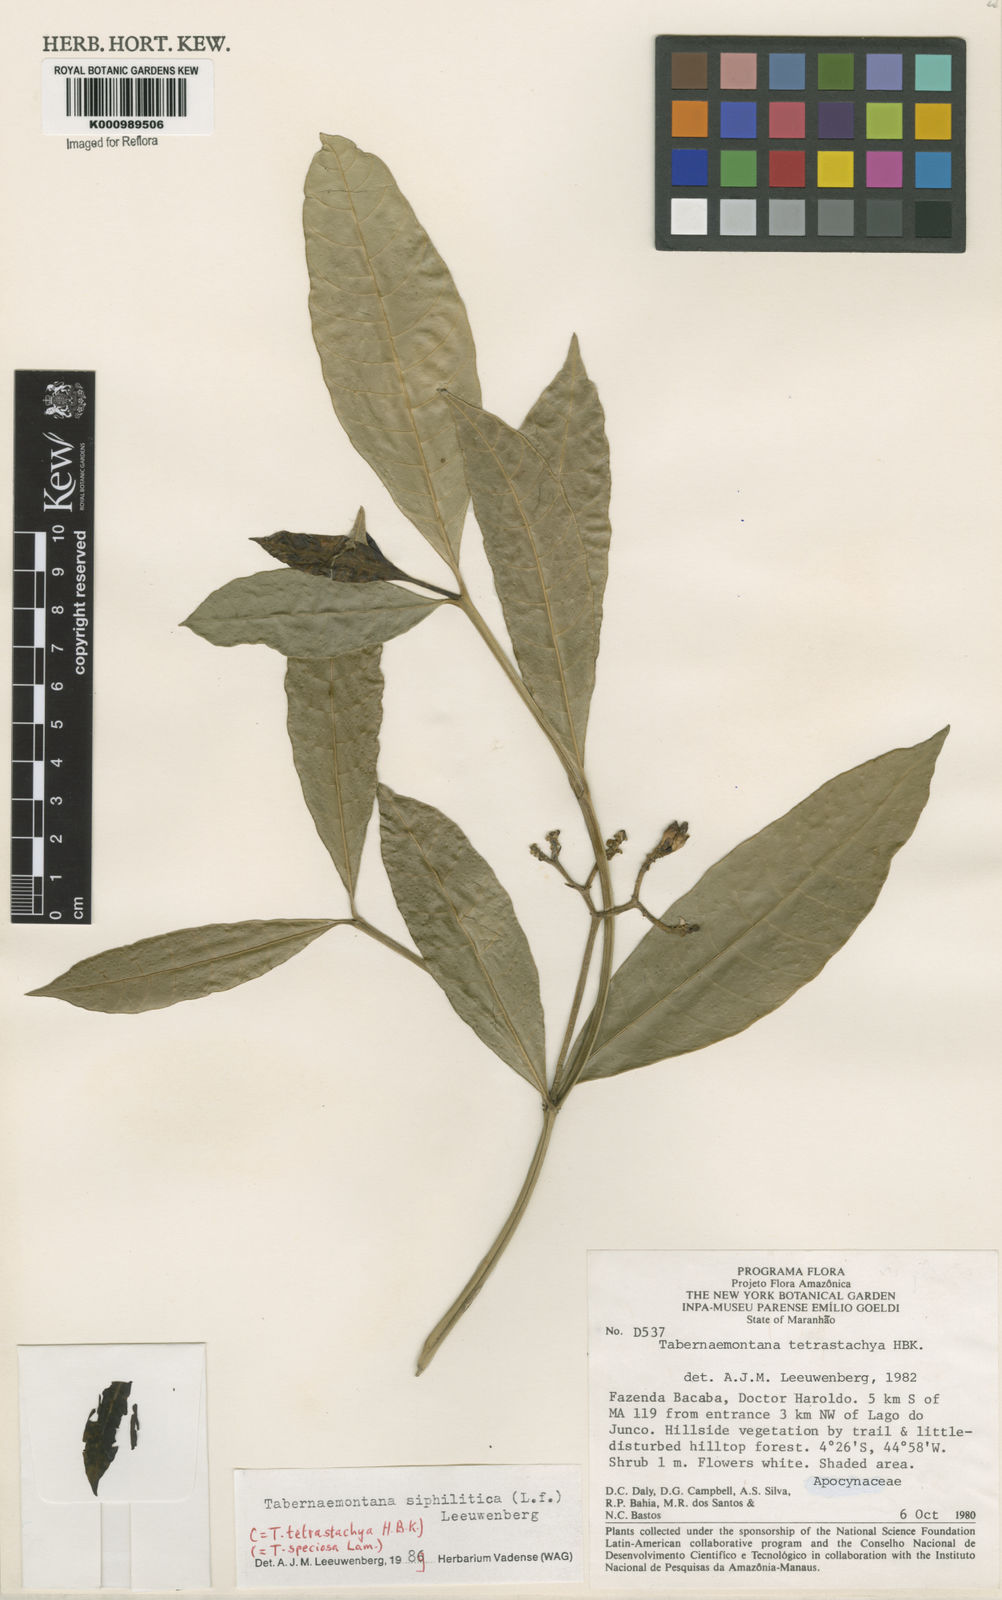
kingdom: Plantae
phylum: Tracheophyta
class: Magnoliopsida
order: Gentianales
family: Apocynaceae
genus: Tabernaemontana
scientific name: Tabernaemontana siphilitica
